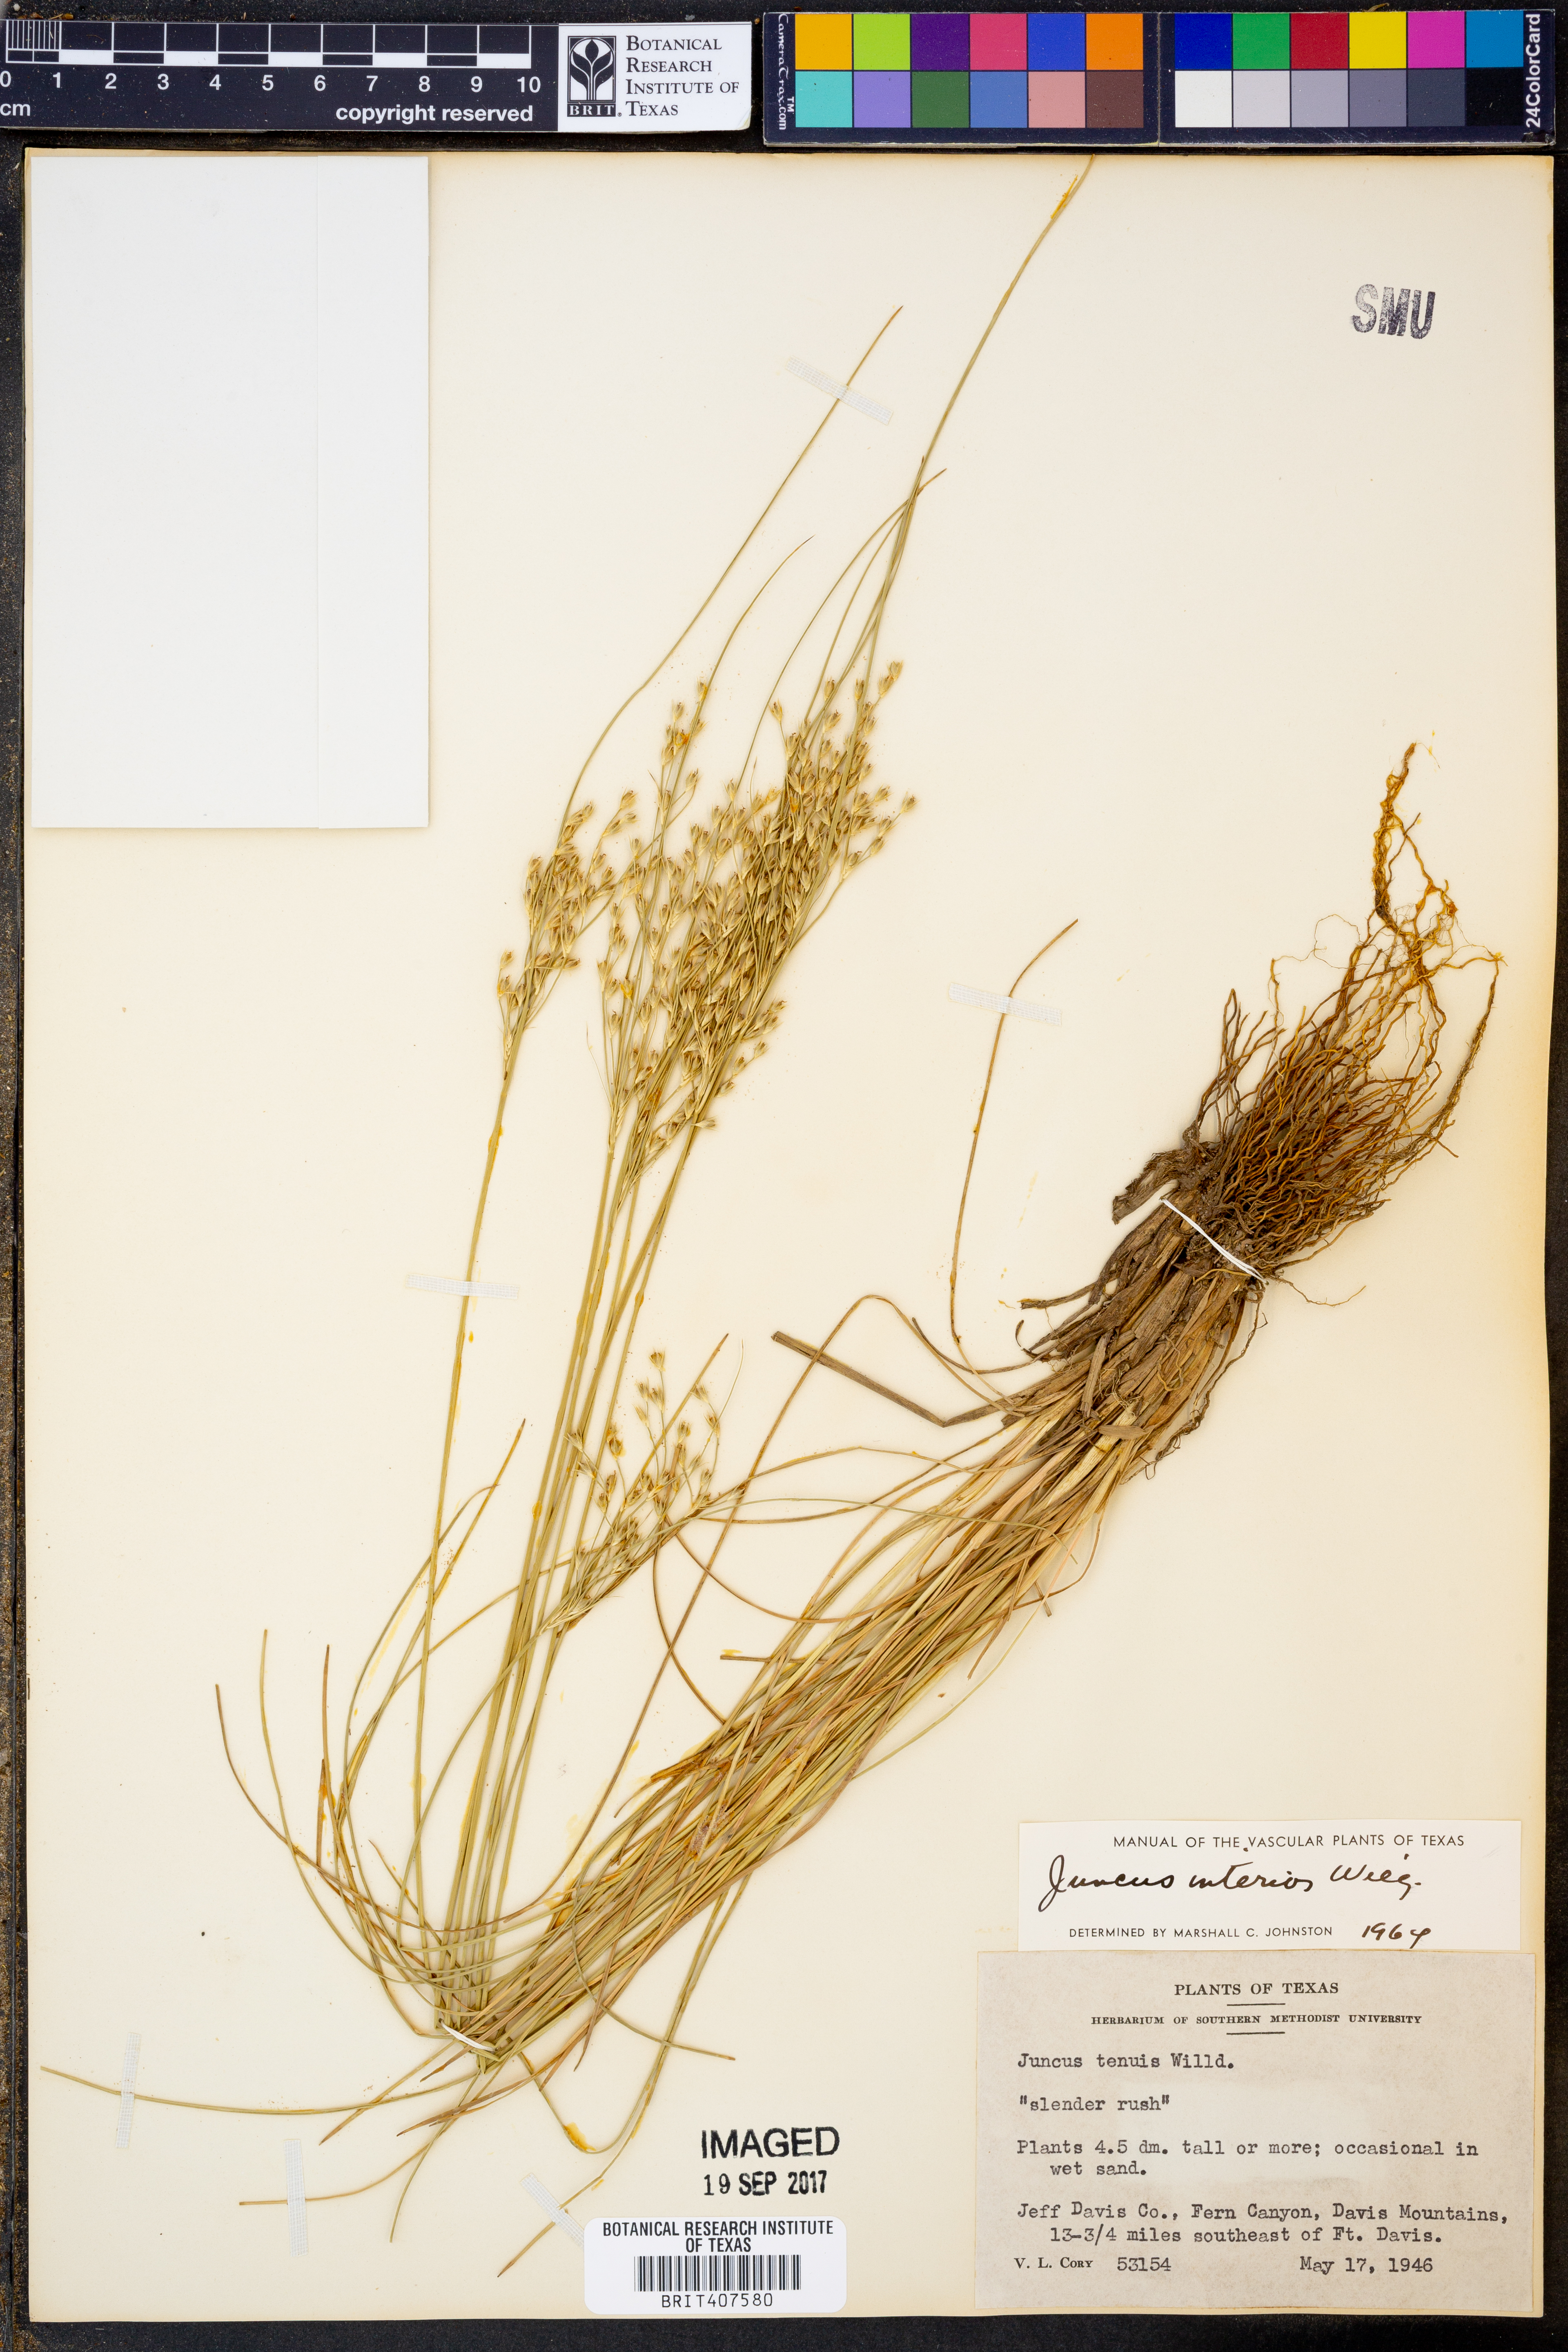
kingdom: Plantae
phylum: Tracheophyta
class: Liliopsida
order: Poales
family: Juncaceae
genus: Juncus
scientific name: Juncus interior
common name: Interior rush
